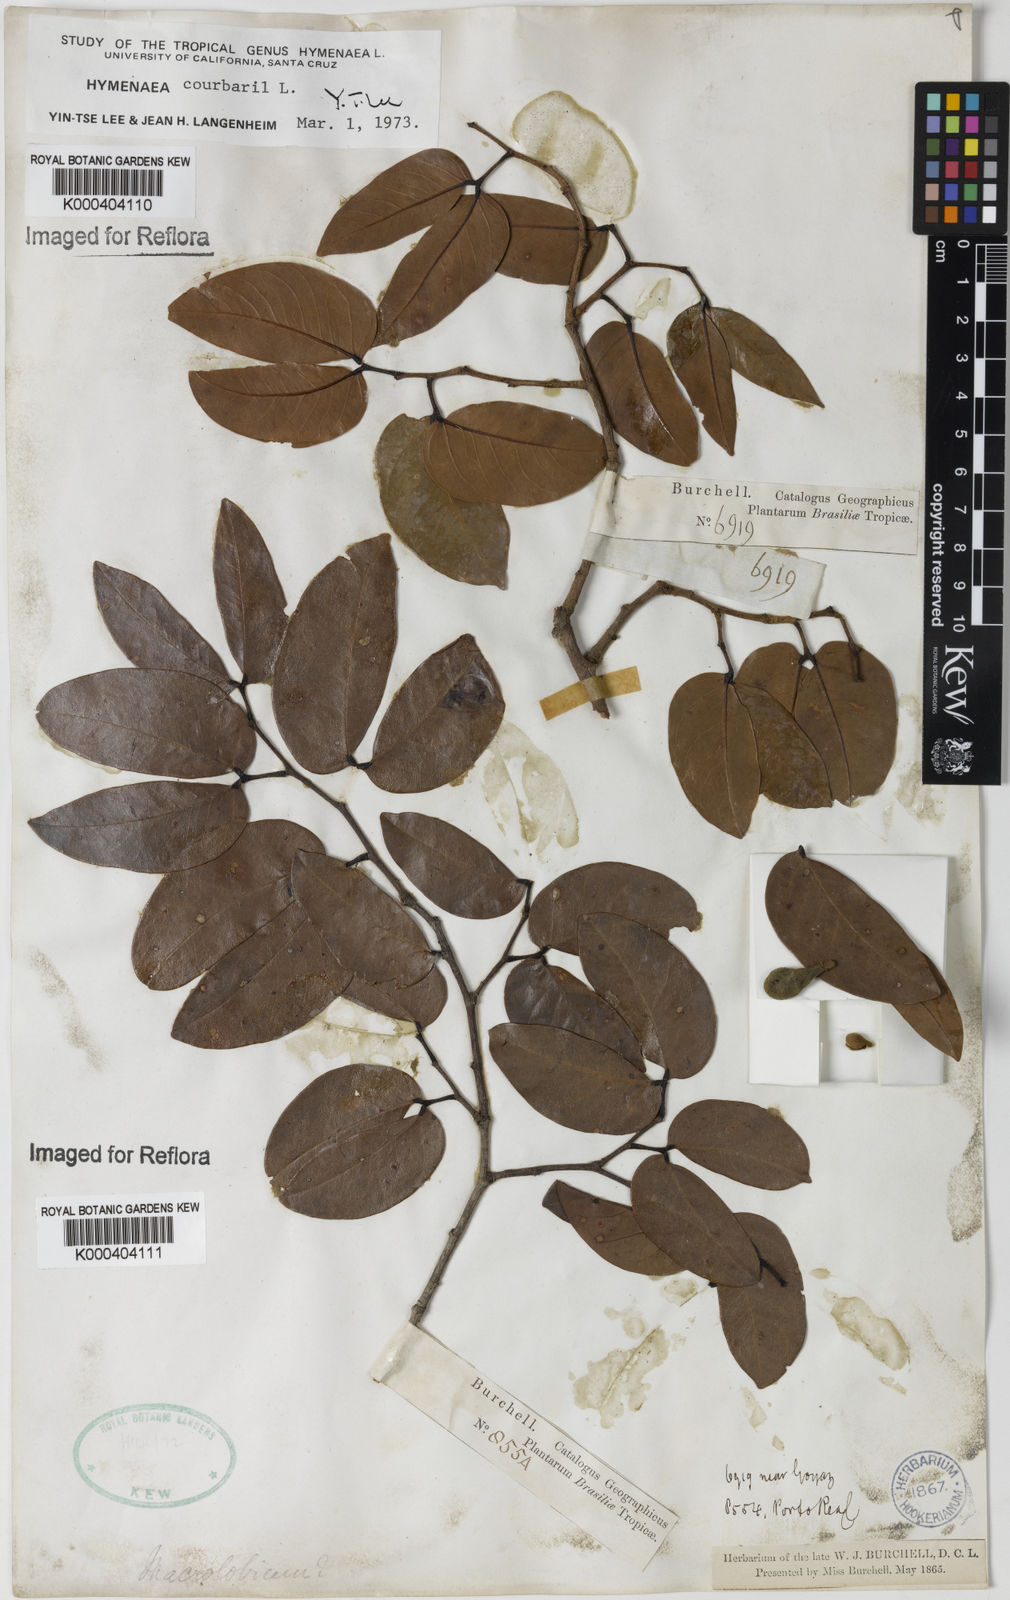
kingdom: Plantae
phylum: Tracheophyta
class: Magnoliopsida
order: Fabales
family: Fabaceae
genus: Hymenaea
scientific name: Hymenaea courbaril
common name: Brazilian copal
